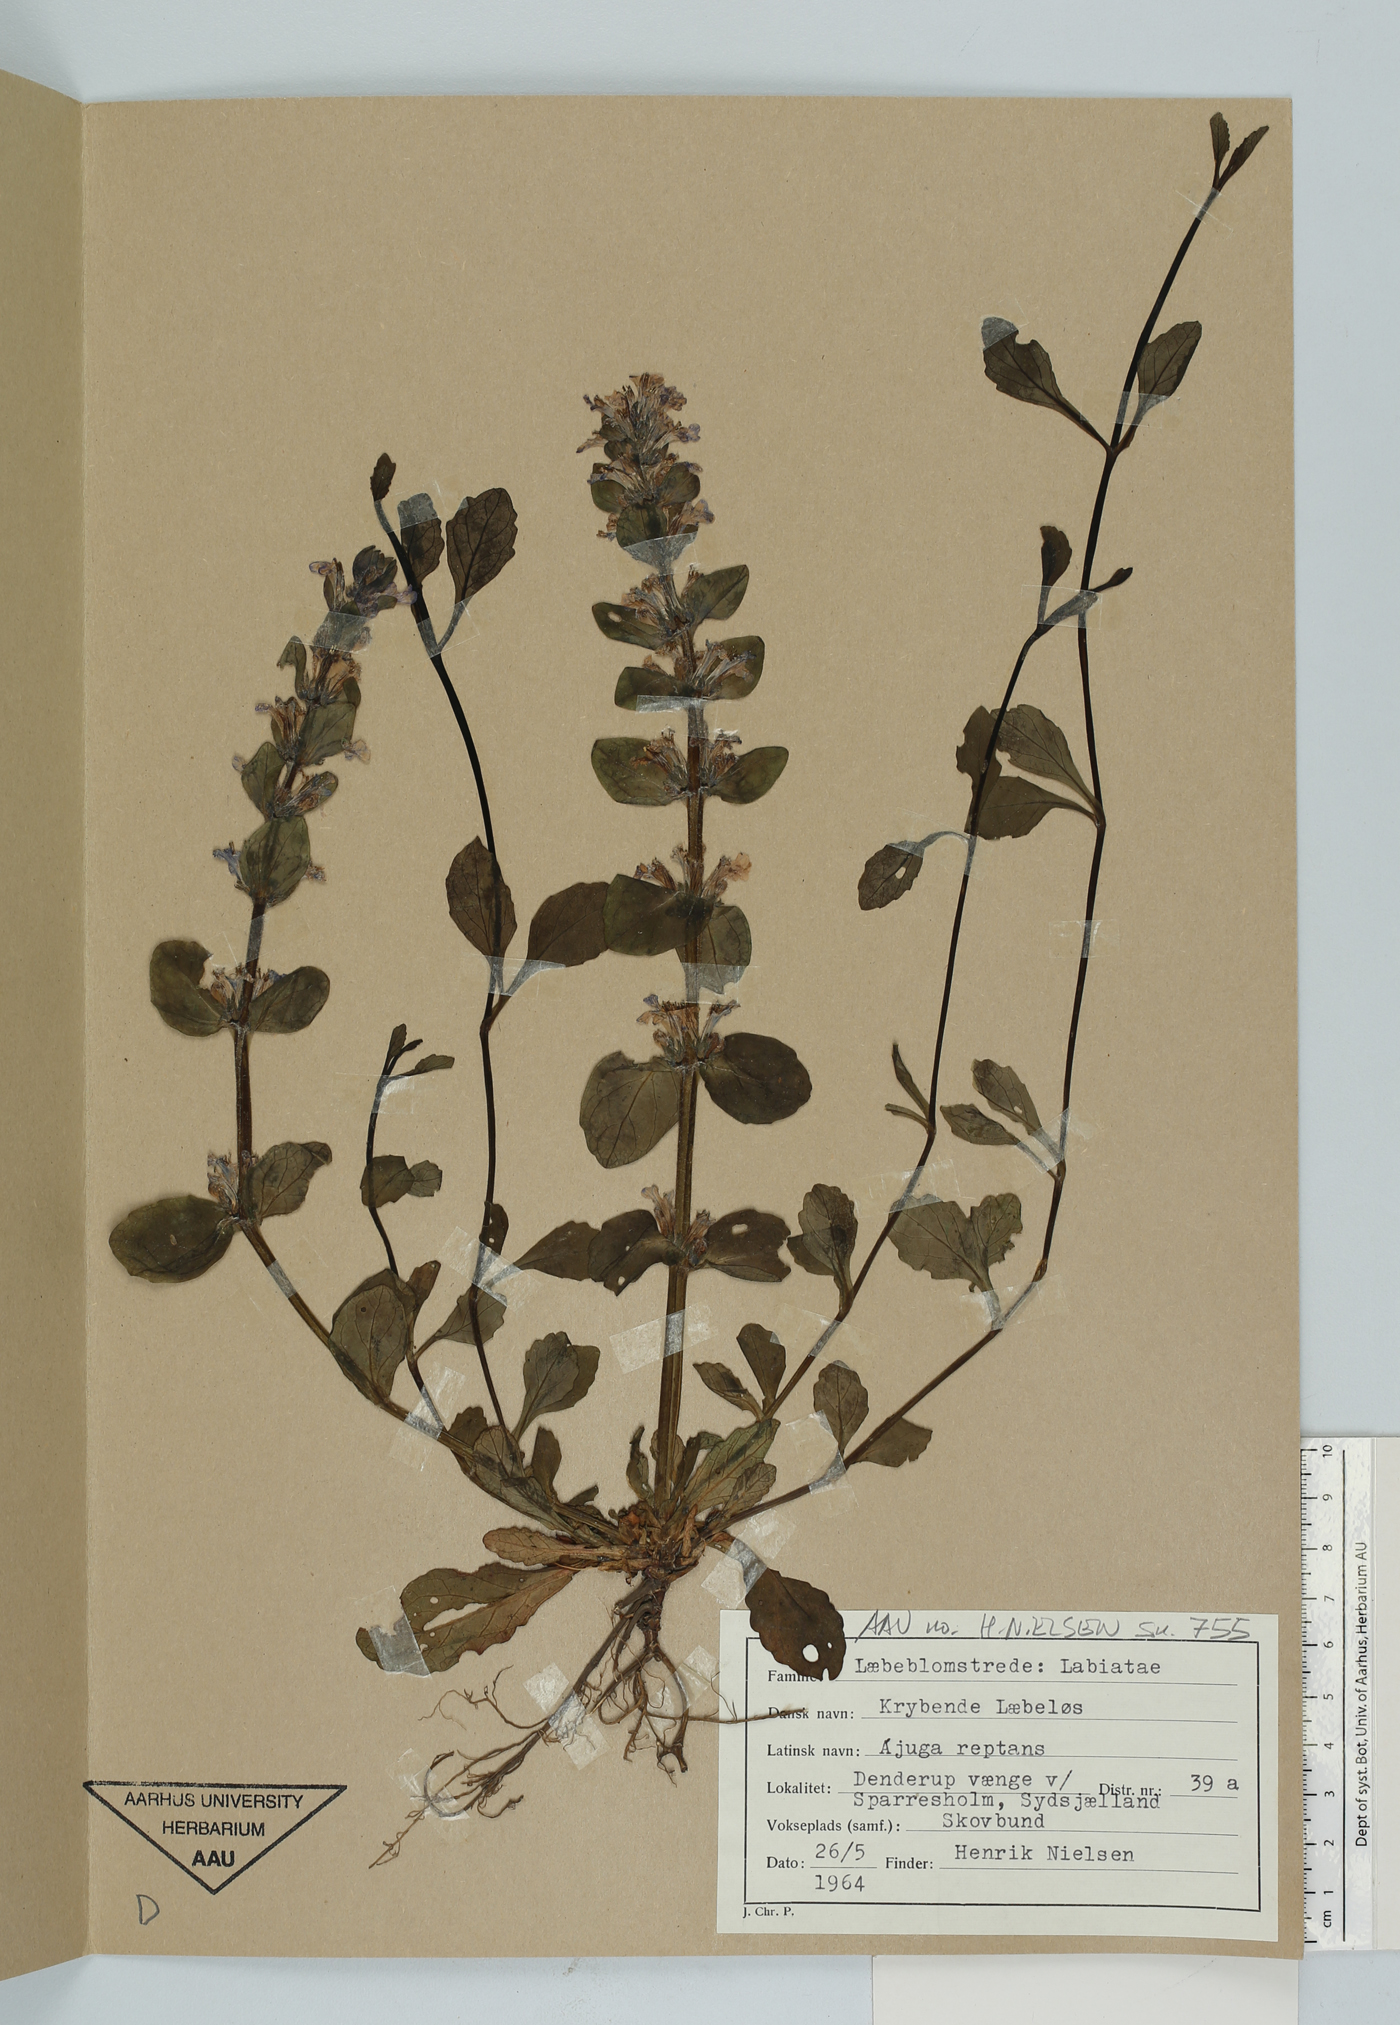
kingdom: Plantae
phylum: Tracheophyta
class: Magnoliopsida
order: Lamiales
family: Lamiaceae
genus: Ajuga
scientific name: Ajuga reptans
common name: Bugle
